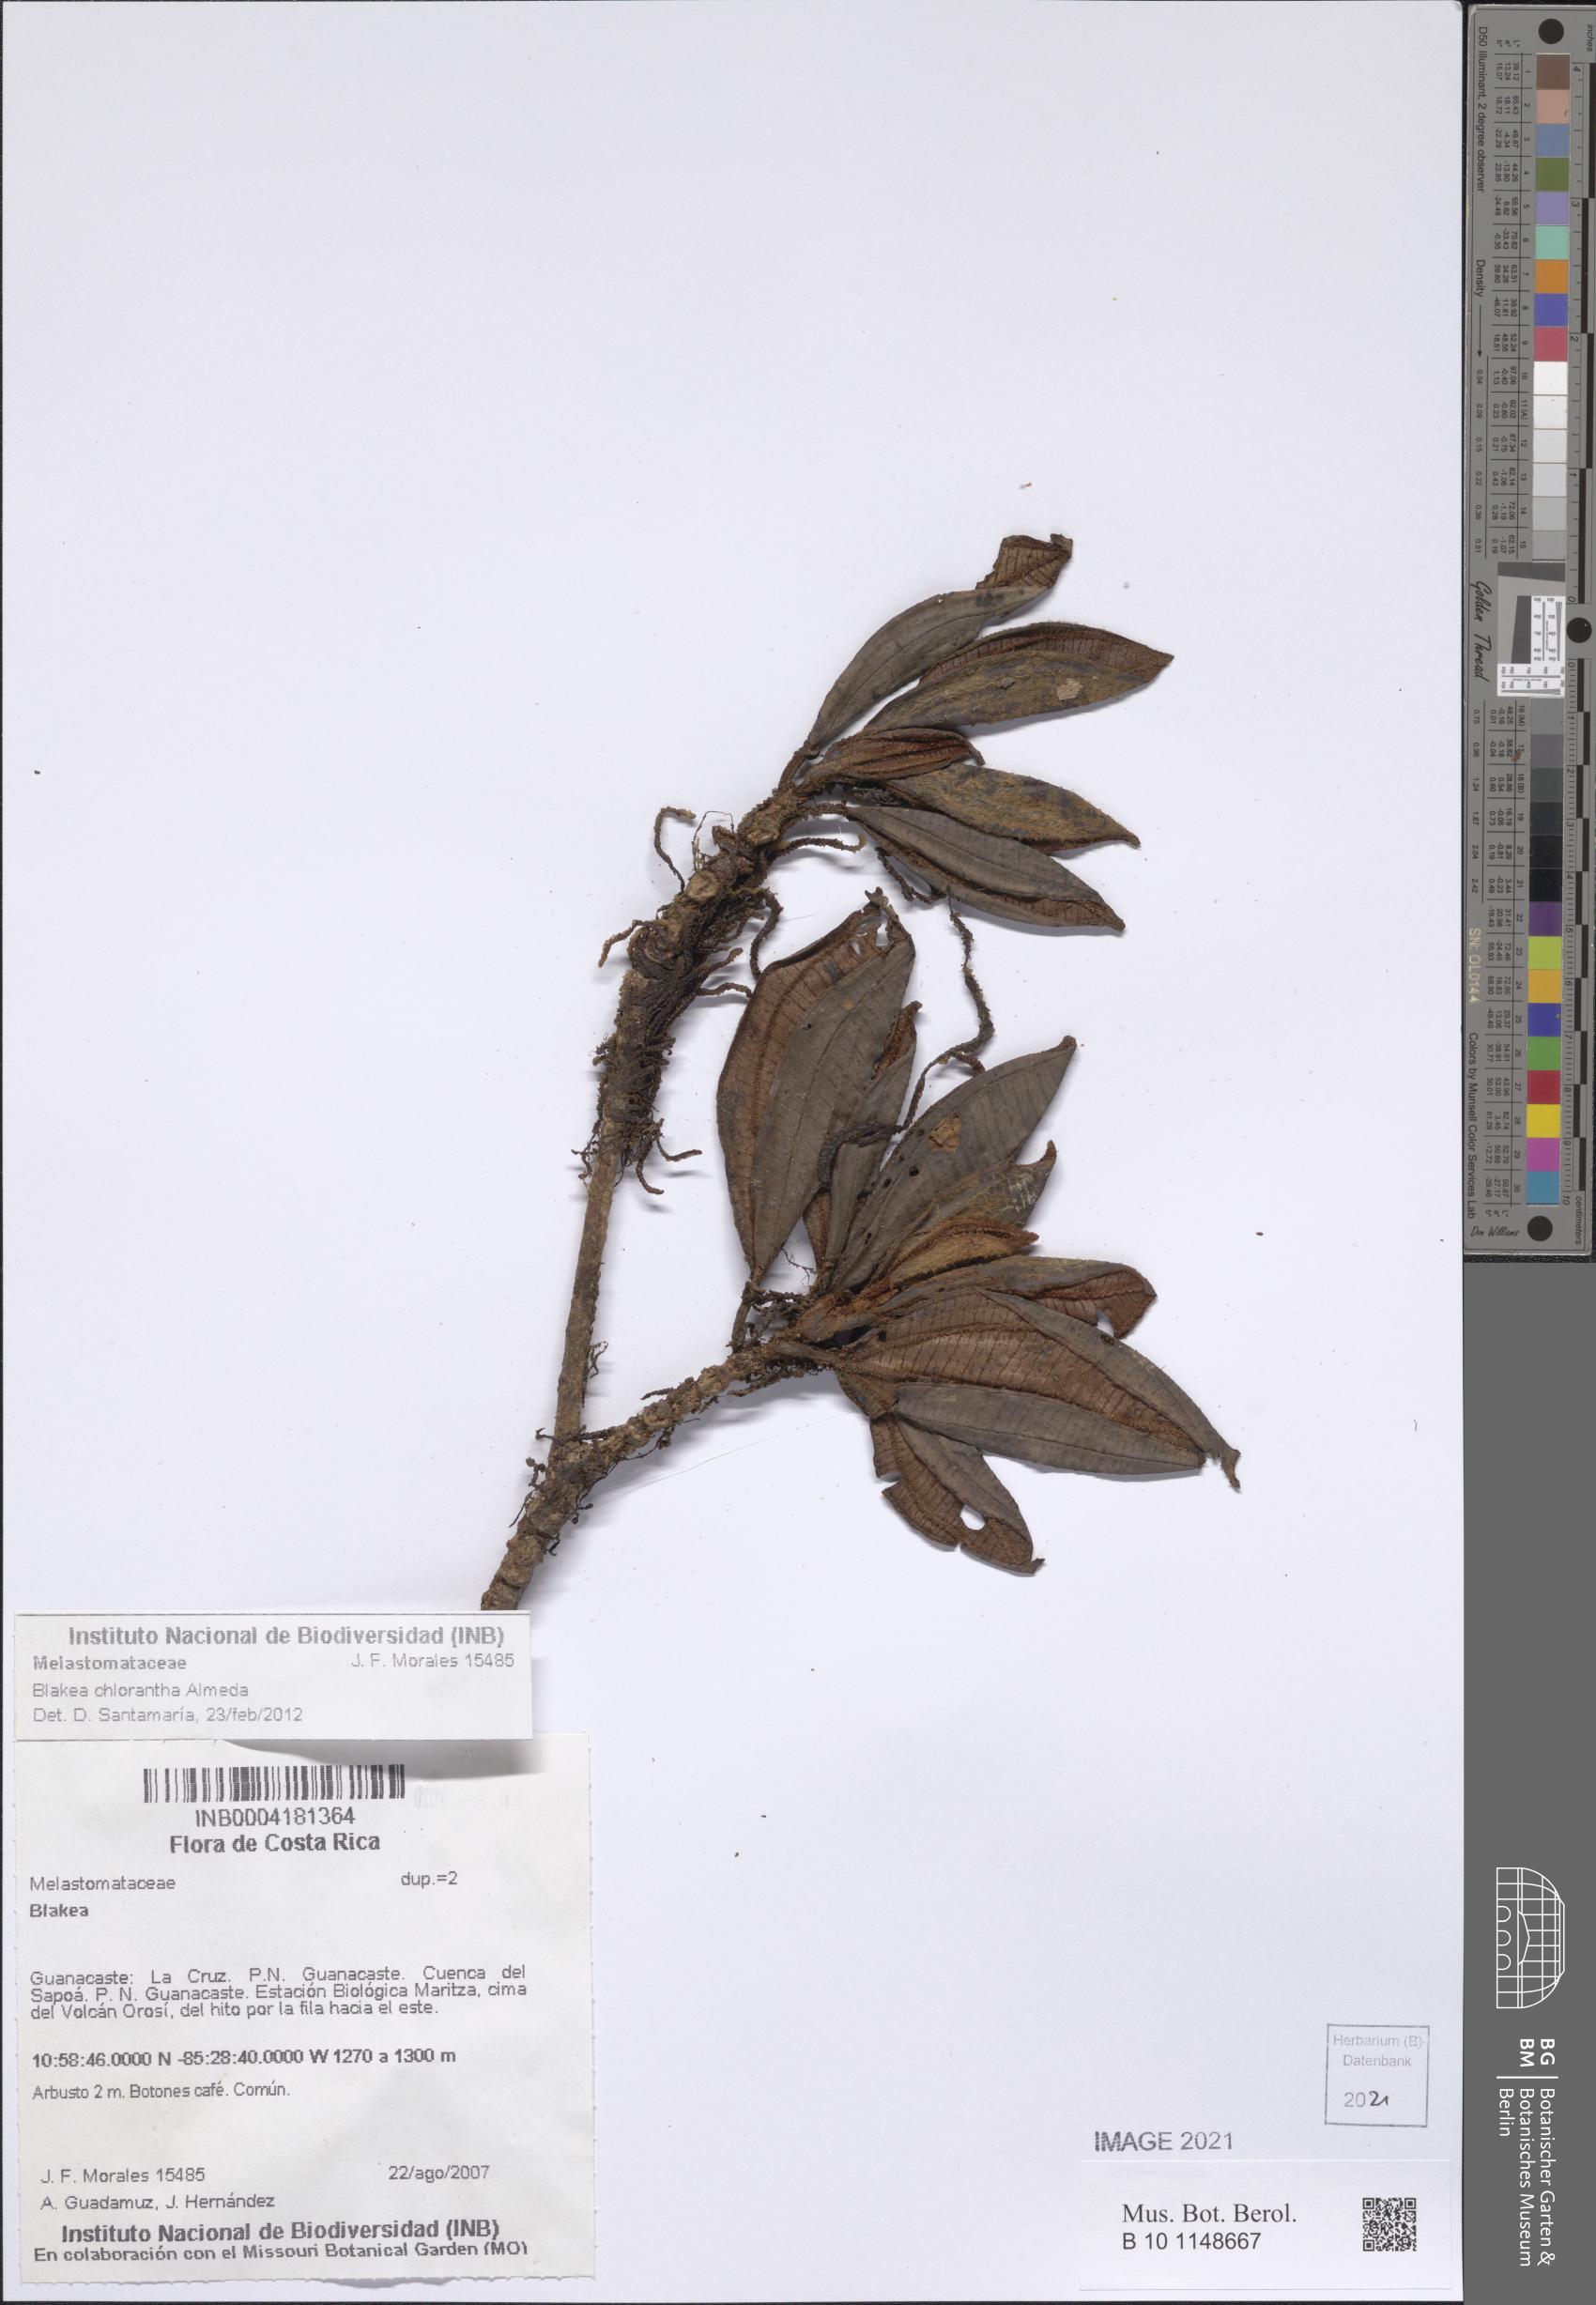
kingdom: Plantae
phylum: Tracheophyta
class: Magnoliopsida
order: Myrtales
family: Melastomataceae
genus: Blakea
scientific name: Blakea chlorantha
